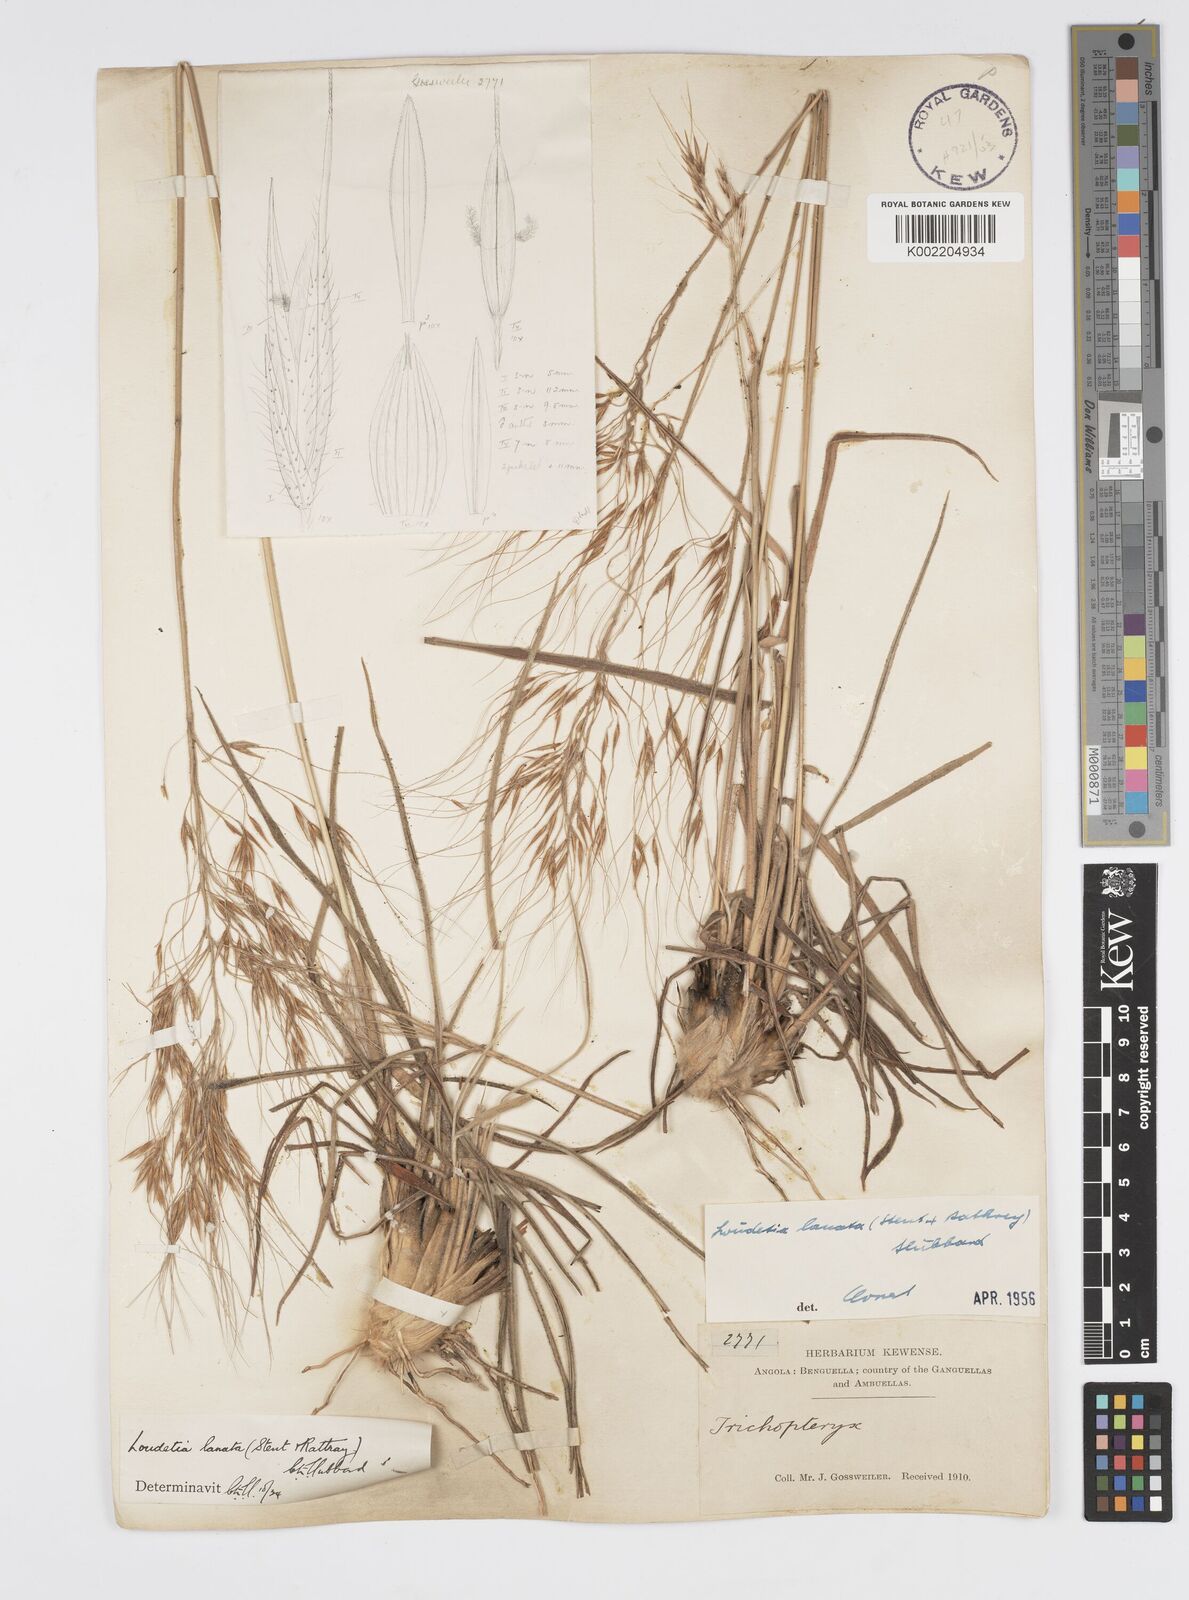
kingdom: Plantae
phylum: Tracheophyta
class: Liliopsida
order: Poales
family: Poaceae
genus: Loudetia
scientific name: Loudetia lanata
